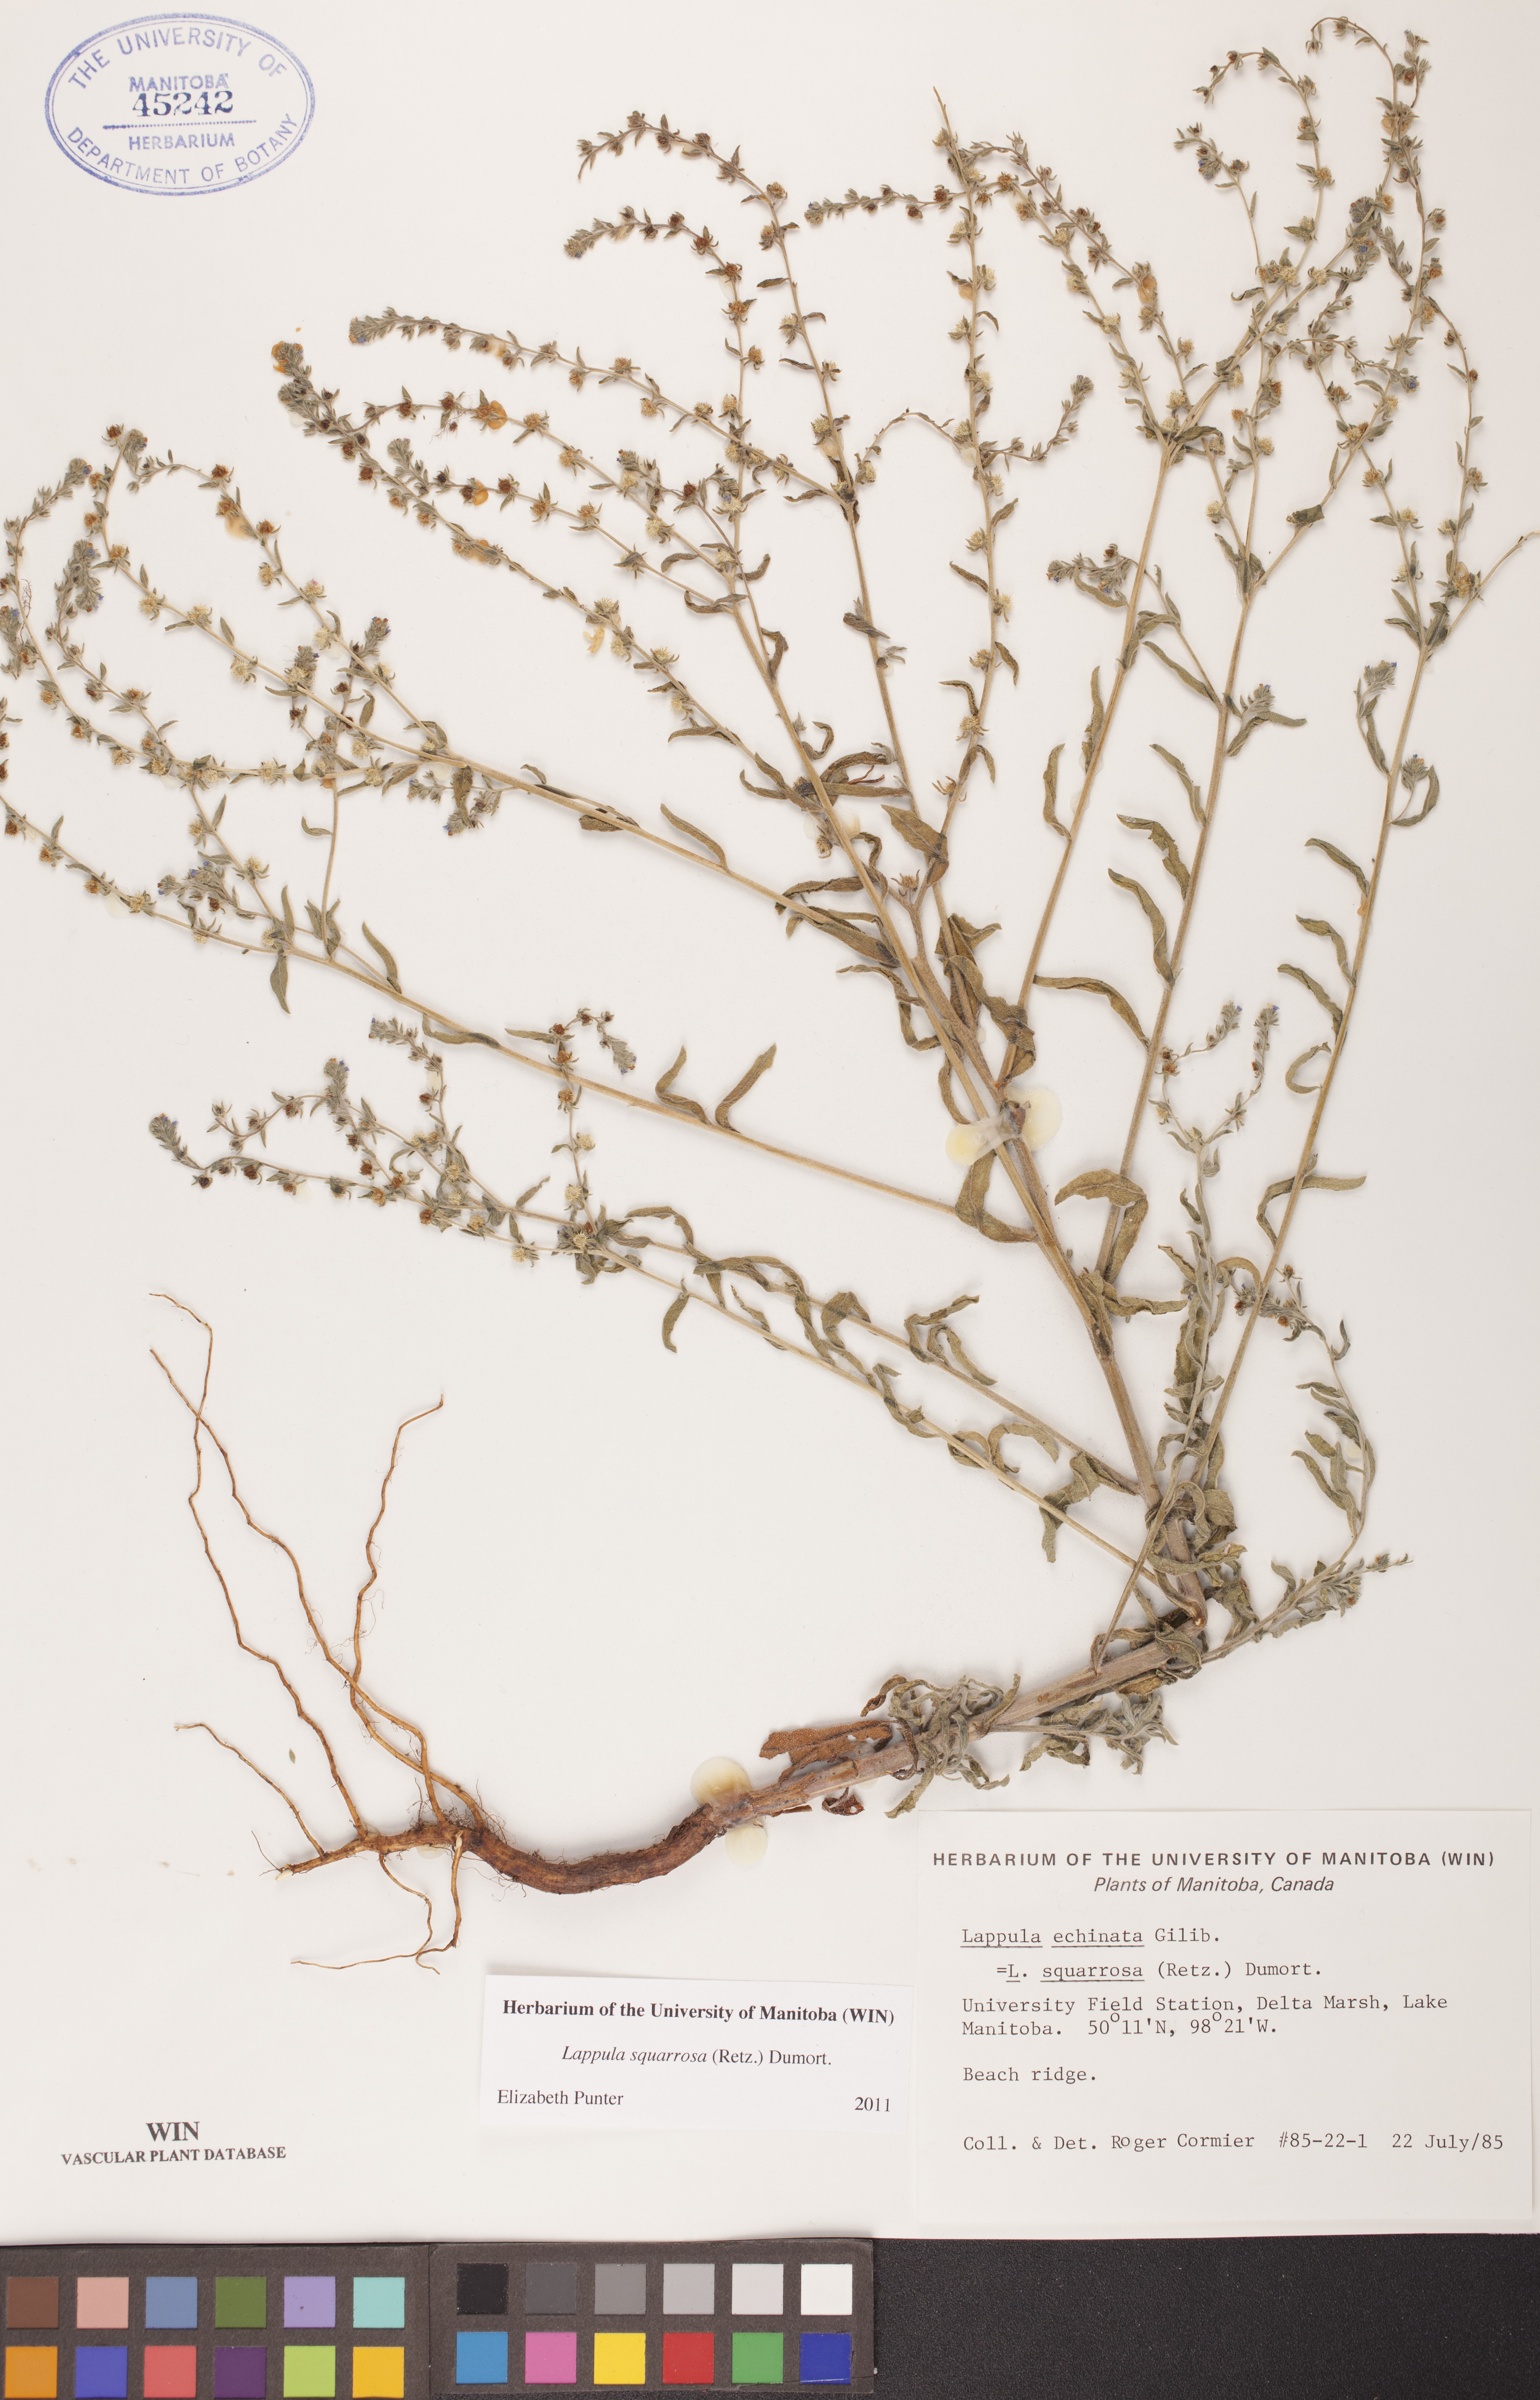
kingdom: Plantae
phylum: Tracheophyta
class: Magnoliopsida
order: Boraginales
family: Boraginaceae
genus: Lappula
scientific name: Lappula squarrosa
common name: European stickseed
